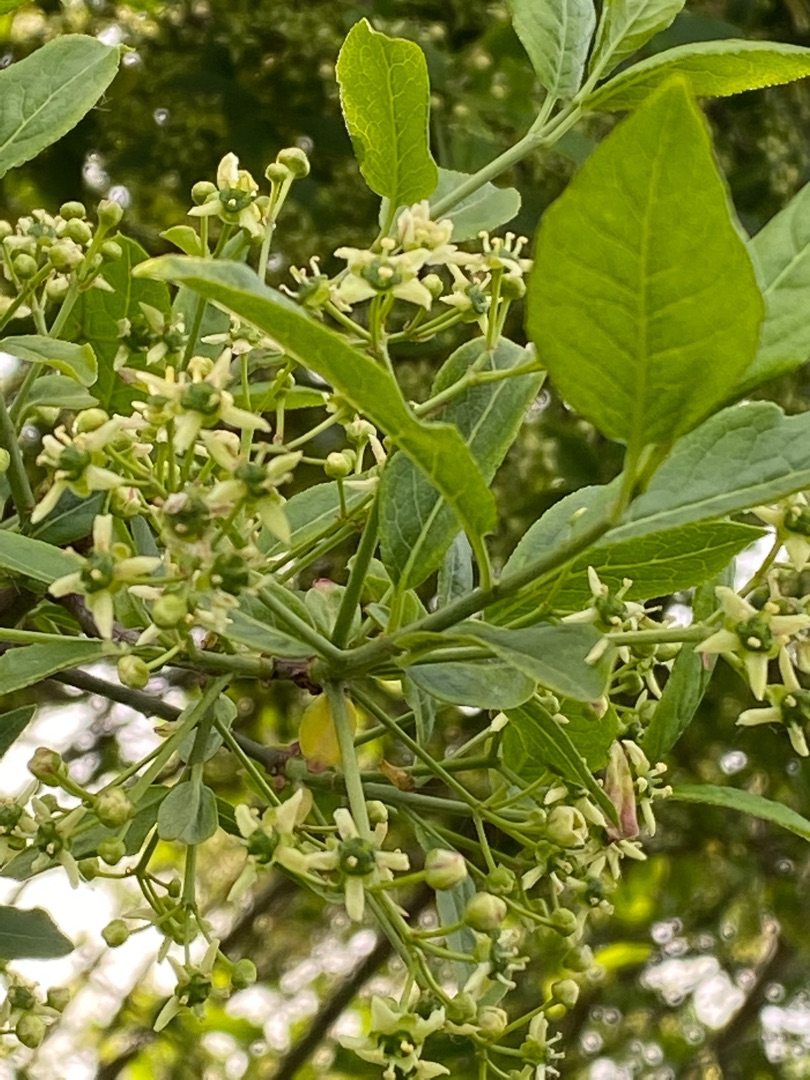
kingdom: Plantae
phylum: Tracheophyta
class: Magnoliopsida
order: Celastrales
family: Celastraceae
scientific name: Celastraceae
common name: Benvedfamilien
